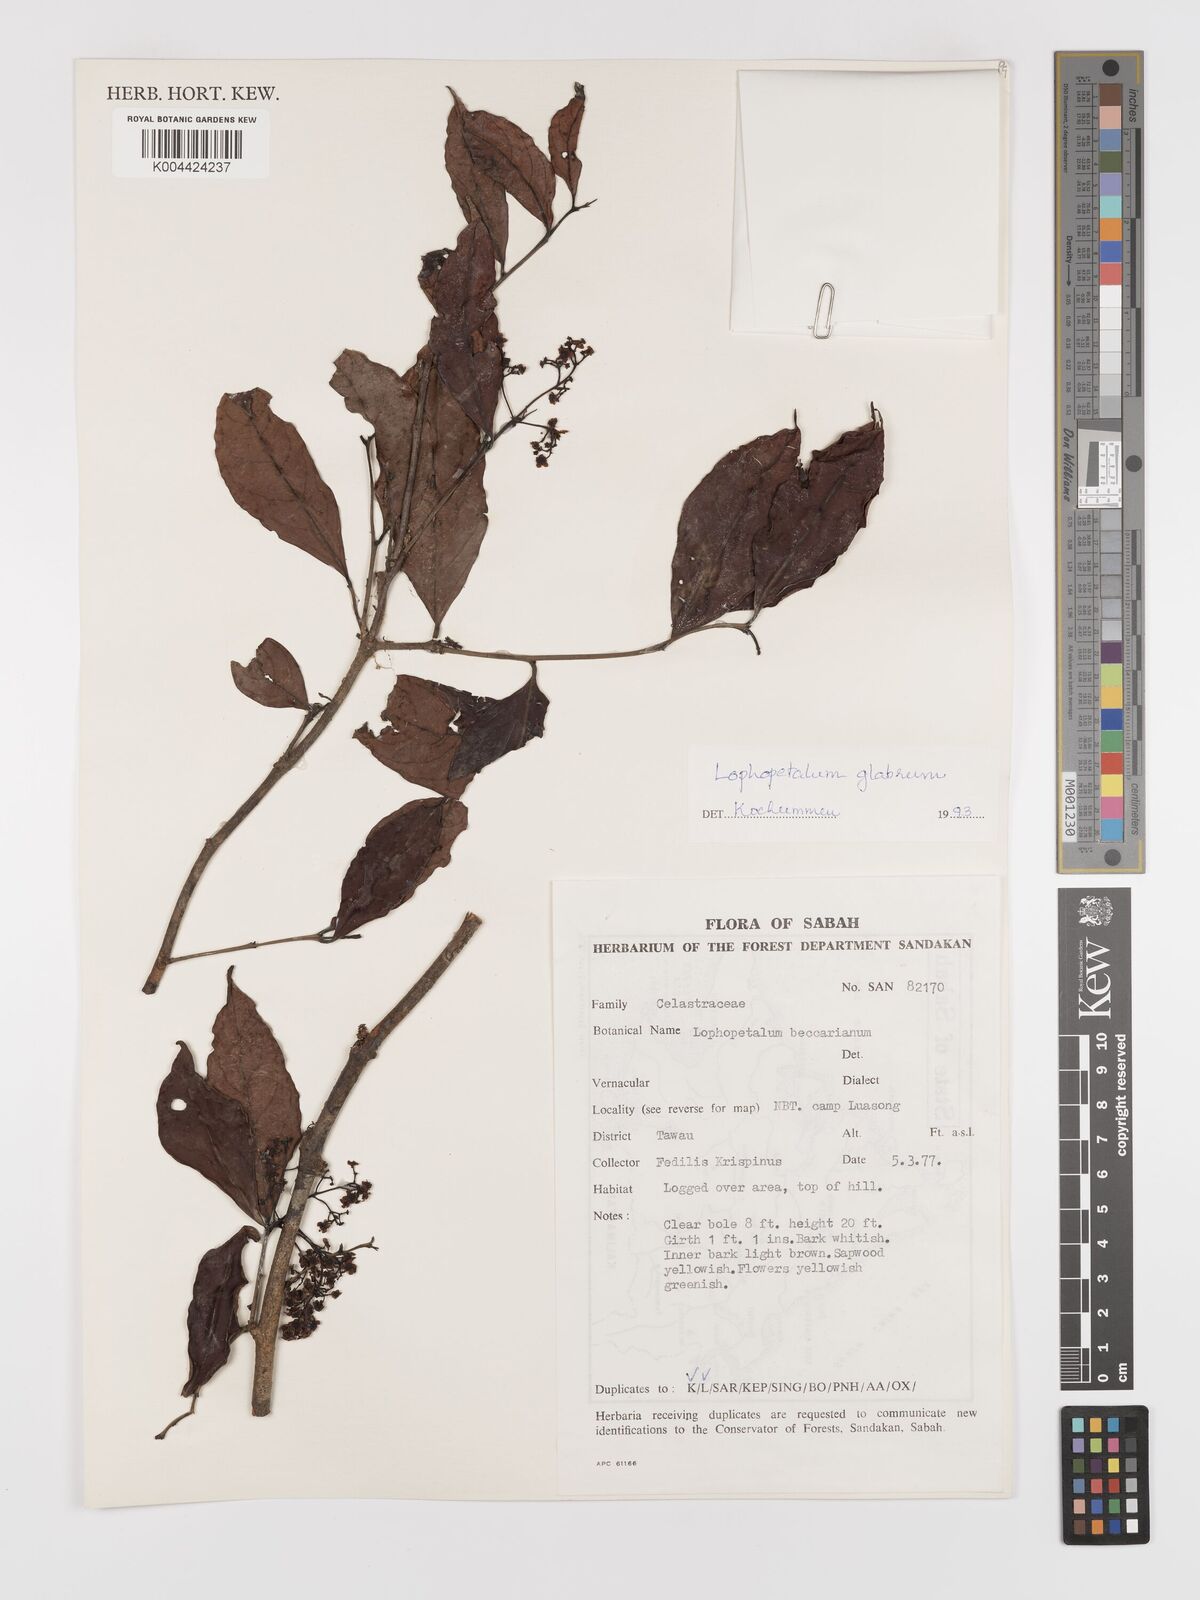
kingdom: Plantae
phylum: Tracheophyta
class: Magnoliopsida
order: Celastrales
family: Celastraceae
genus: Lophopetalum
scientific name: Lophopetalum glabrum
